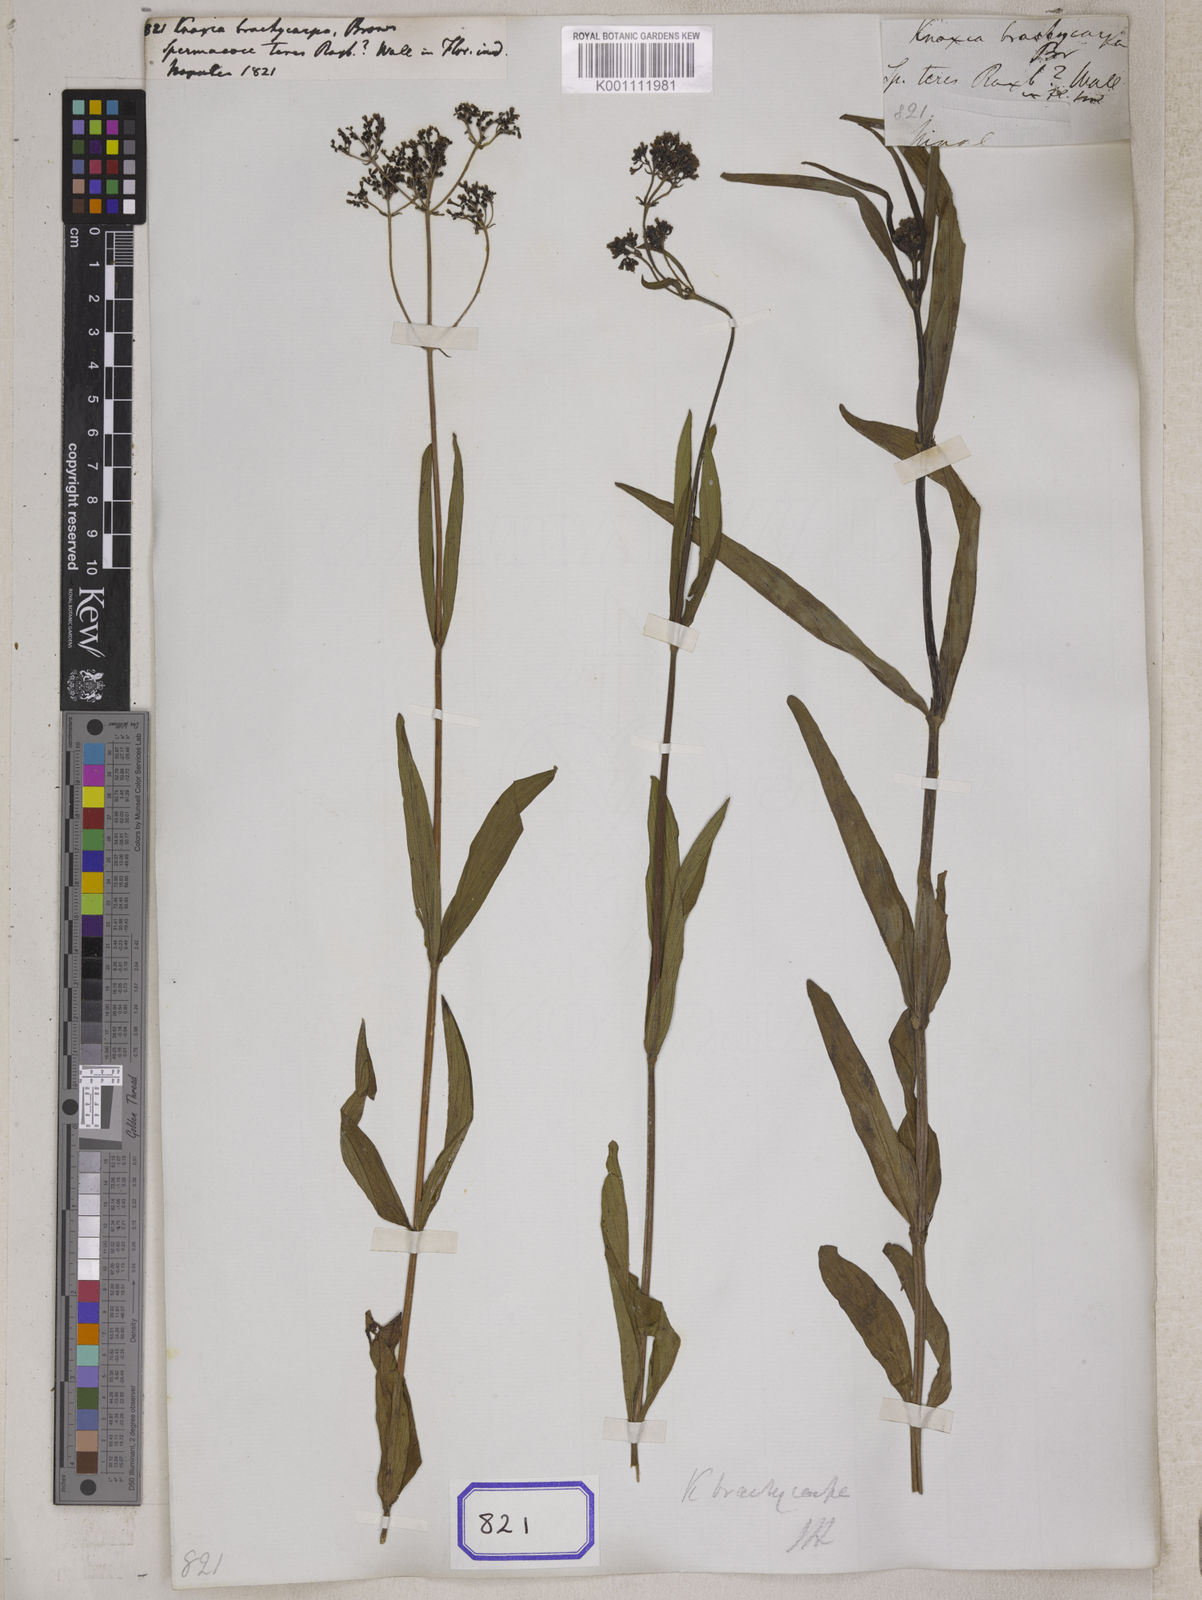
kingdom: Plantae
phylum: Tracheophyta
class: Magnoliopsida
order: Gentianales
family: Rubiaceae
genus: Knoxia
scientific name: Knoxia
